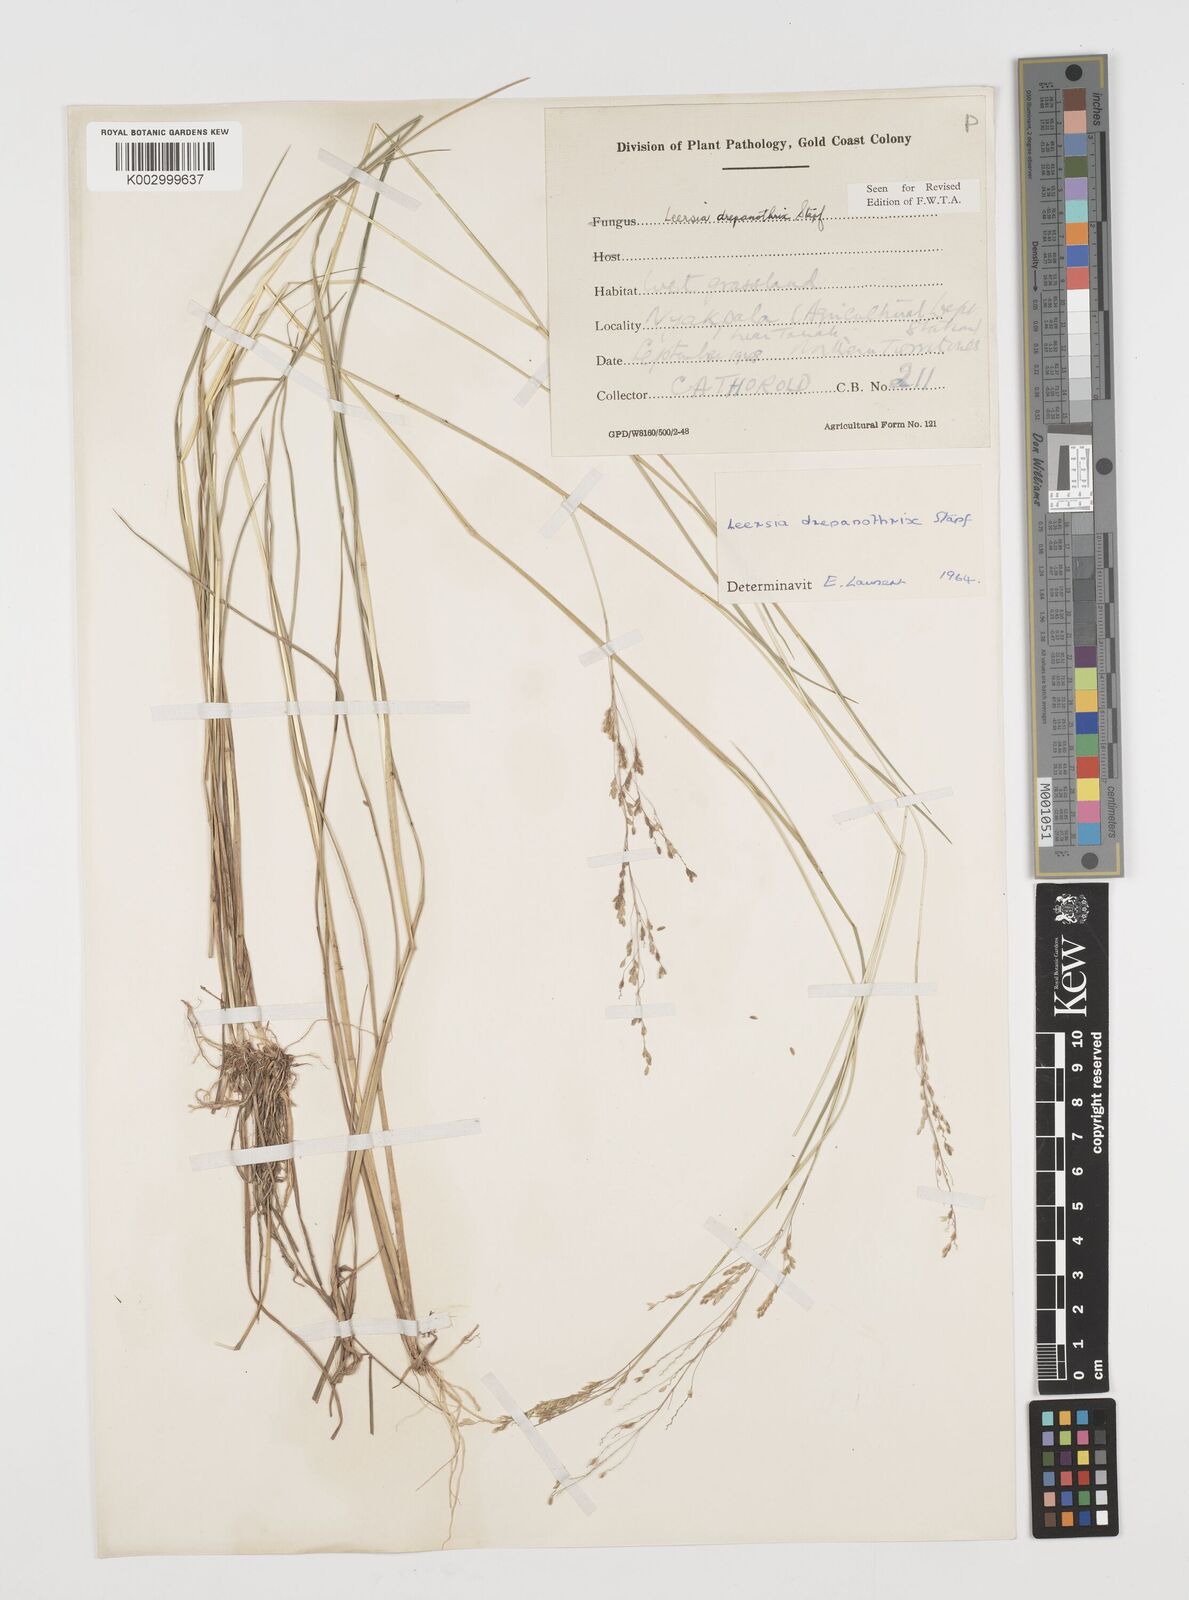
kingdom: Plantae
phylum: Tracheophyta
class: Liliopsida
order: Poales
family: Poaceae
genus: Leersia
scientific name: Leersia drepanothrix
